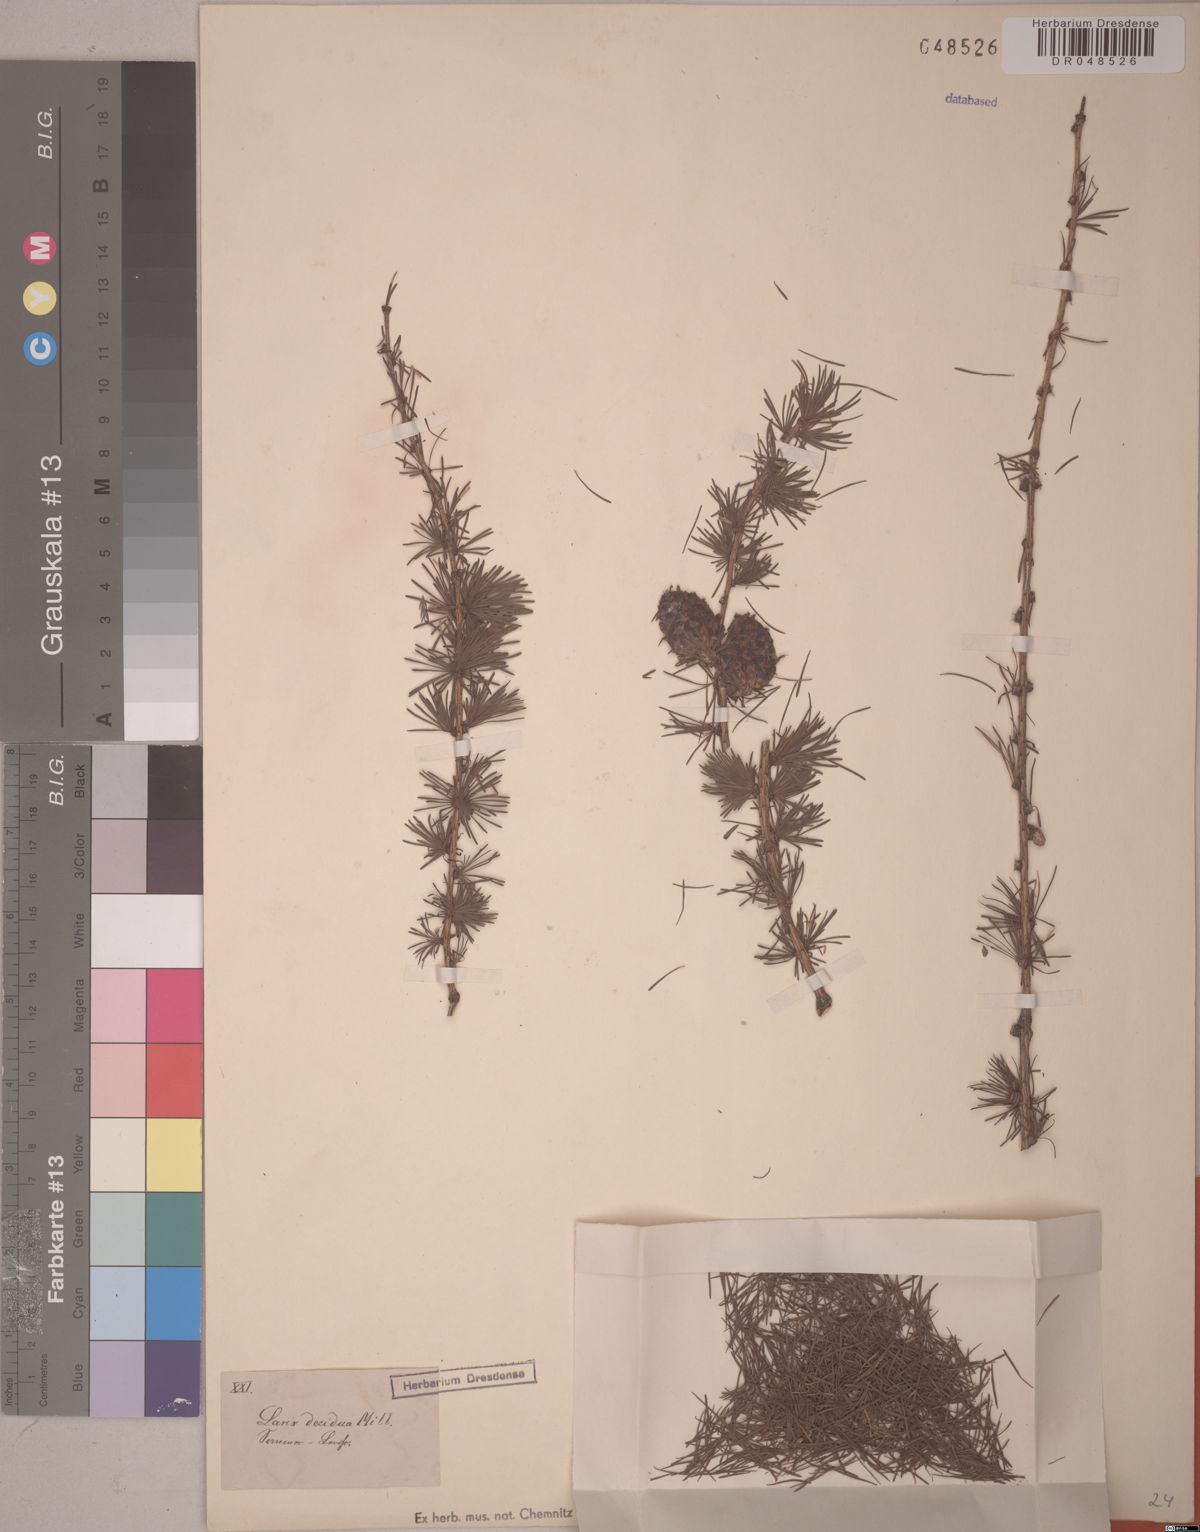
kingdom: Plantae
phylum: Tracheophyta
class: Pinopsida
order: Pinales
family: Pinaceae
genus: Larix
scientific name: Larix decidua
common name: European larch
